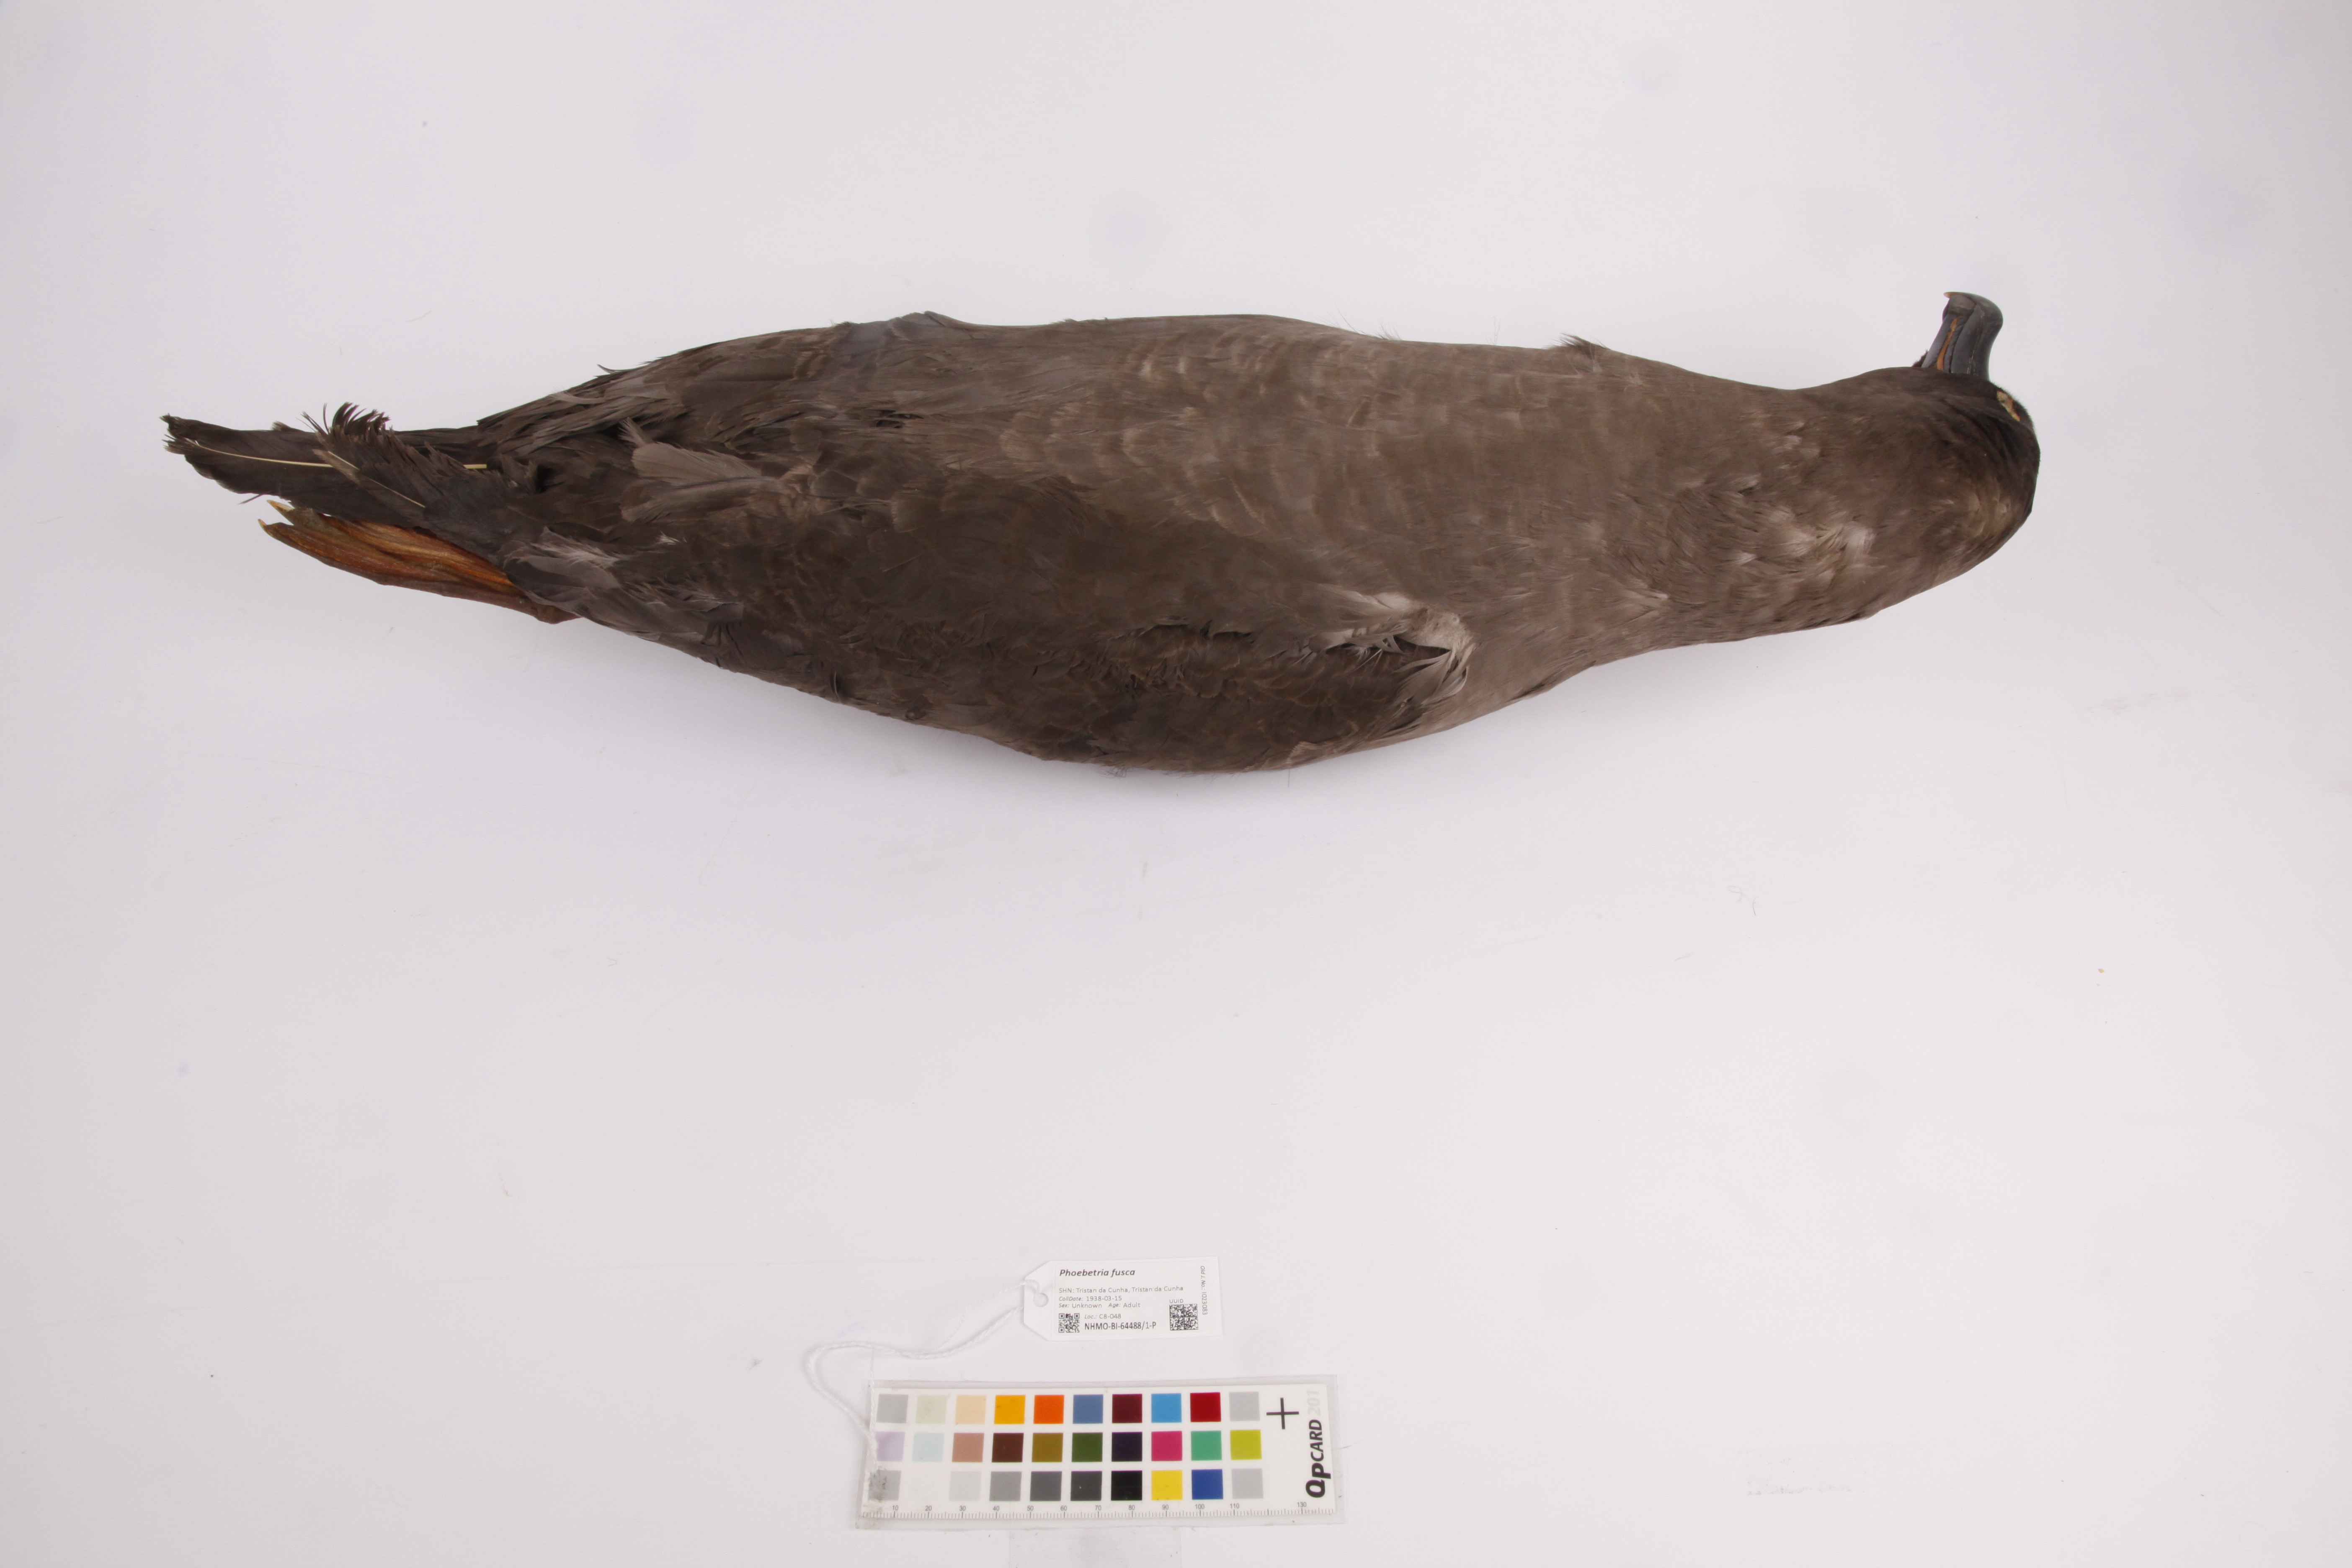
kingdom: Animalia
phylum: Chordata
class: Aves
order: Procellariiformes
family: Diomedeidae
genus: Phoebetria
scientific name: Phoebetria fusca
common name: Sooty albatross
